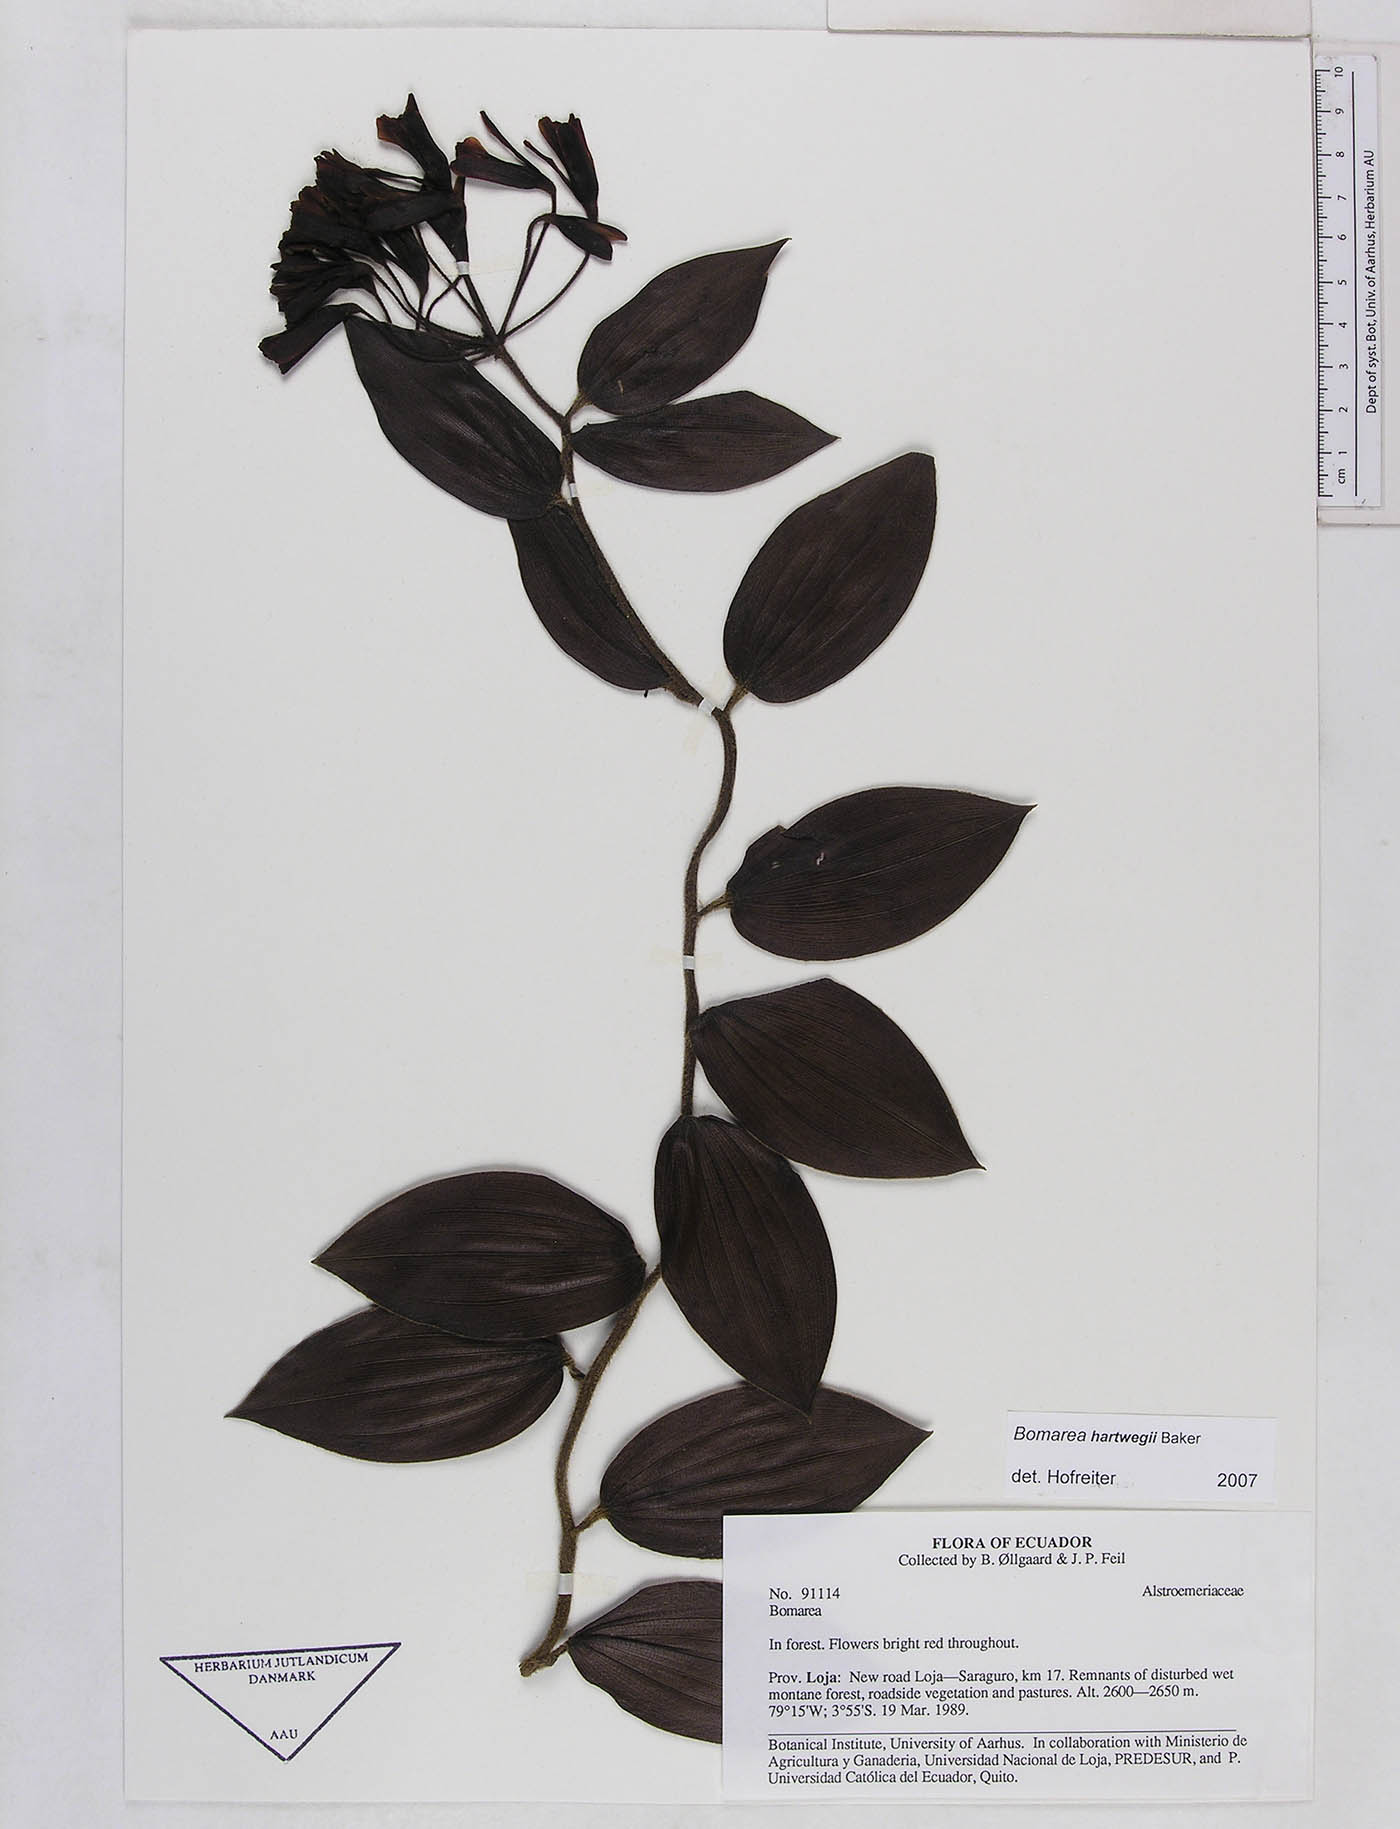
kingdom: Plantae
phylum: Tracheophyta
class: Liliopsida
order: Liliales
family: Alstroemeriaceae
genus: Bomarea
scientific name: Bomarea hartwegii
